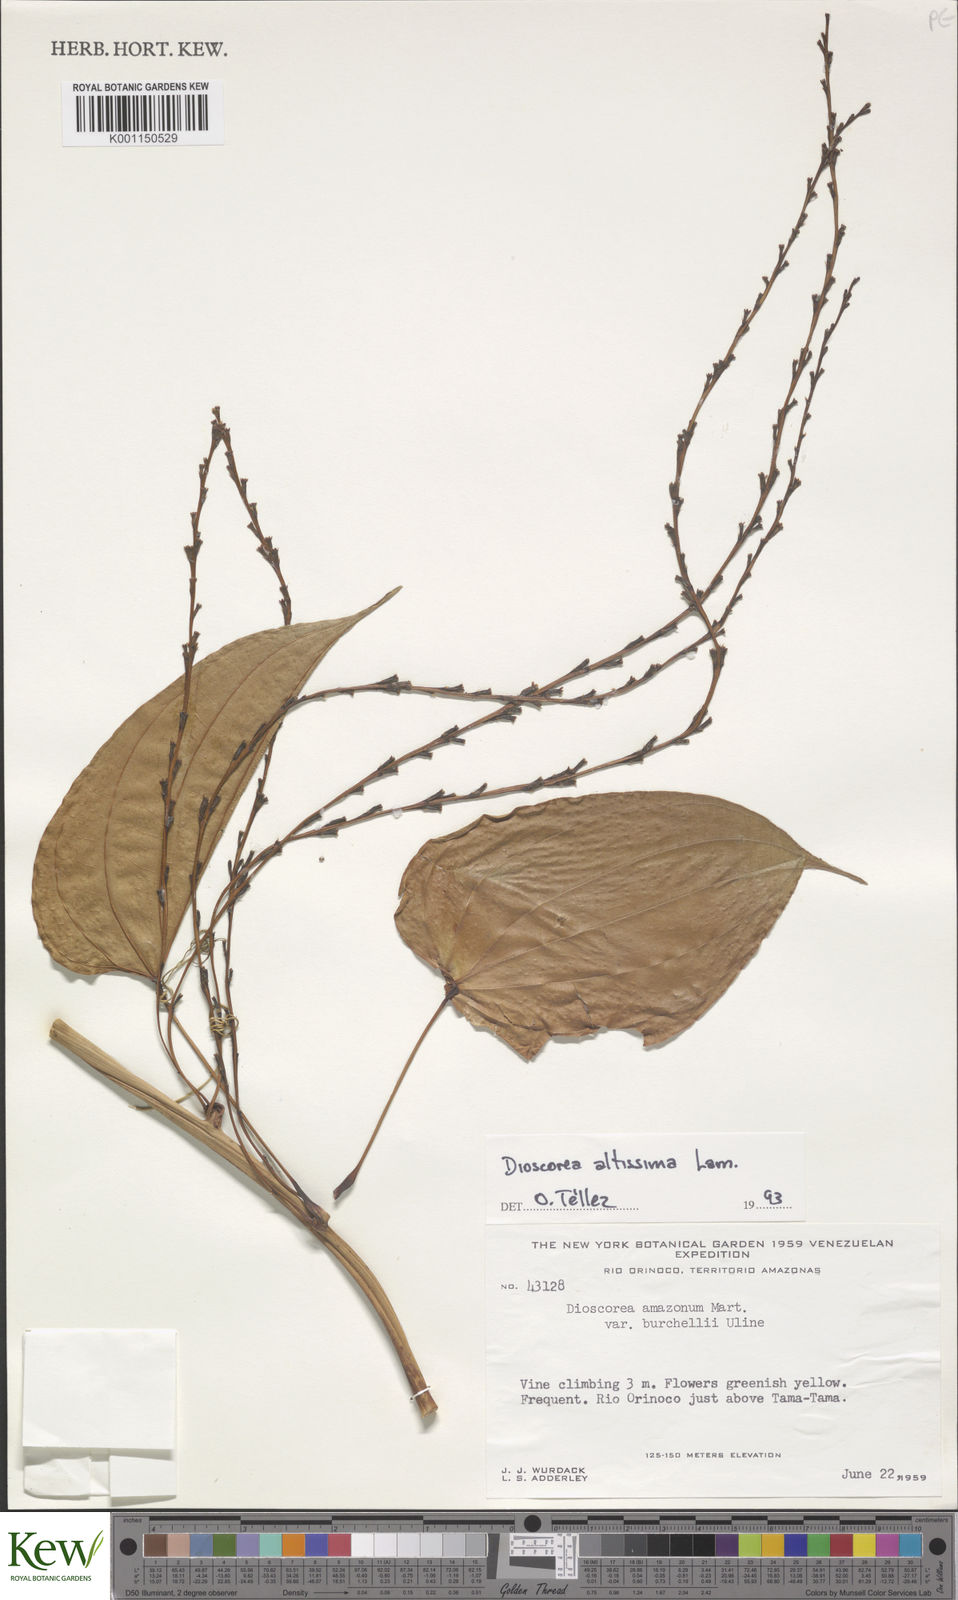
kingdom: Plantae
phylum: Tracheophyta
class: Liliopsida
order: Dioscoreales
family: Dioscoreaceae
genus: Dioscorea
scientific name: Dioscorea chondrocarpa
